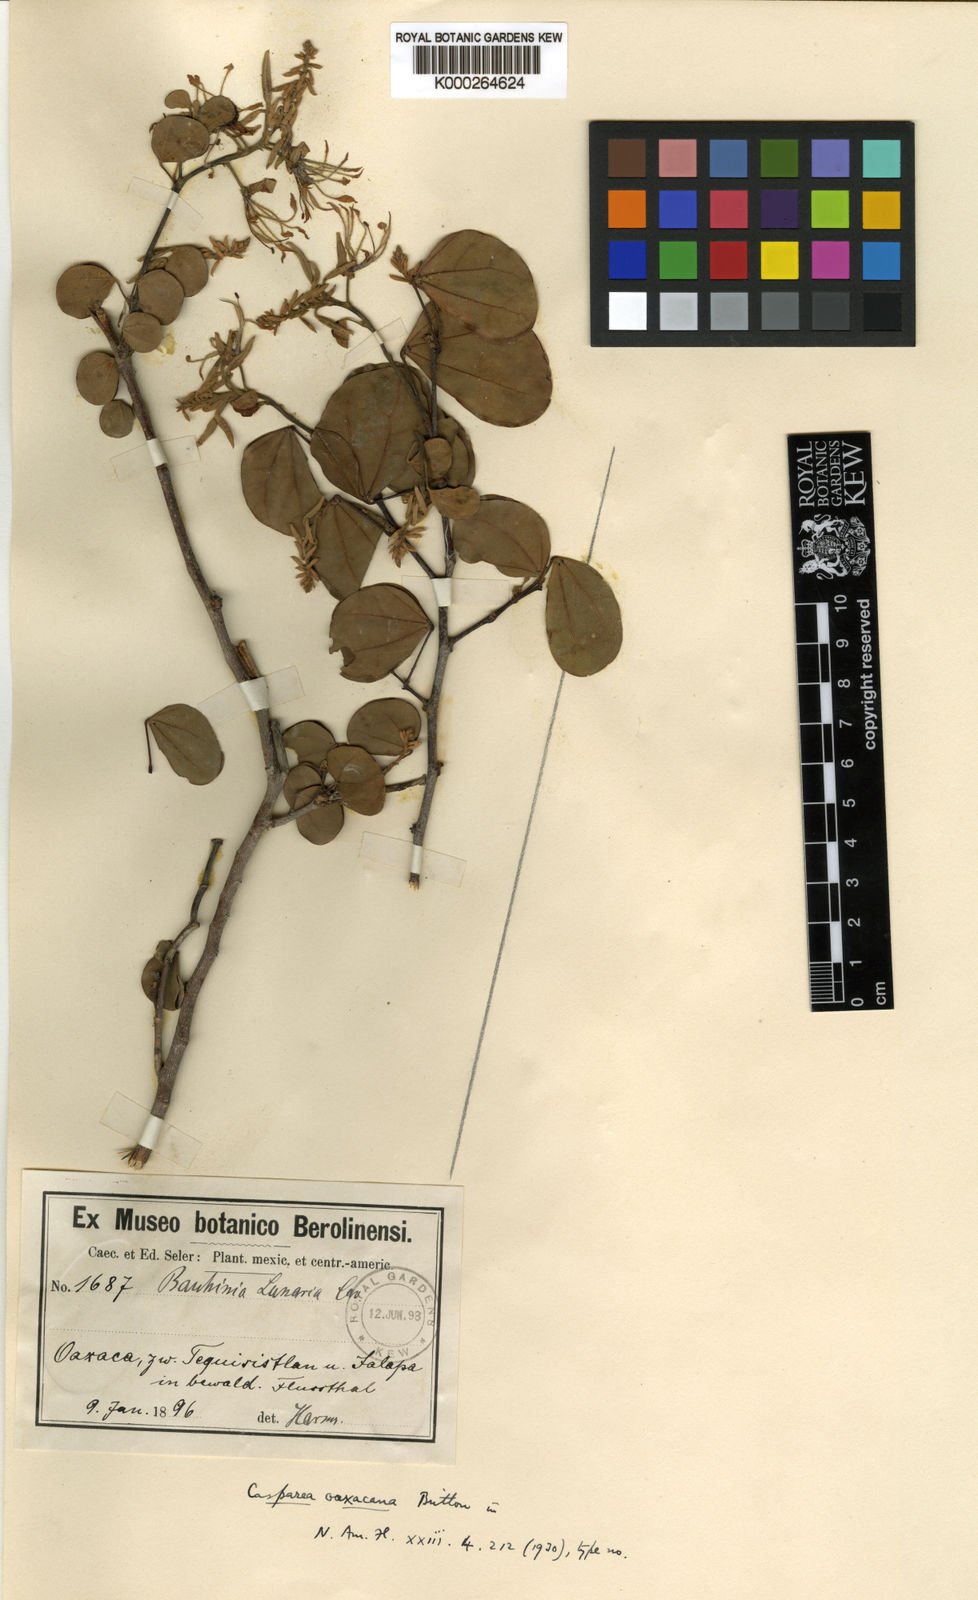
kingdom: Plantae
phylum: Tracheophyta
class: Magnoliopsida
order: Fabales
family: Fabaceae
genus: Bauhinia
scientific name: Bauhinia divaricata
